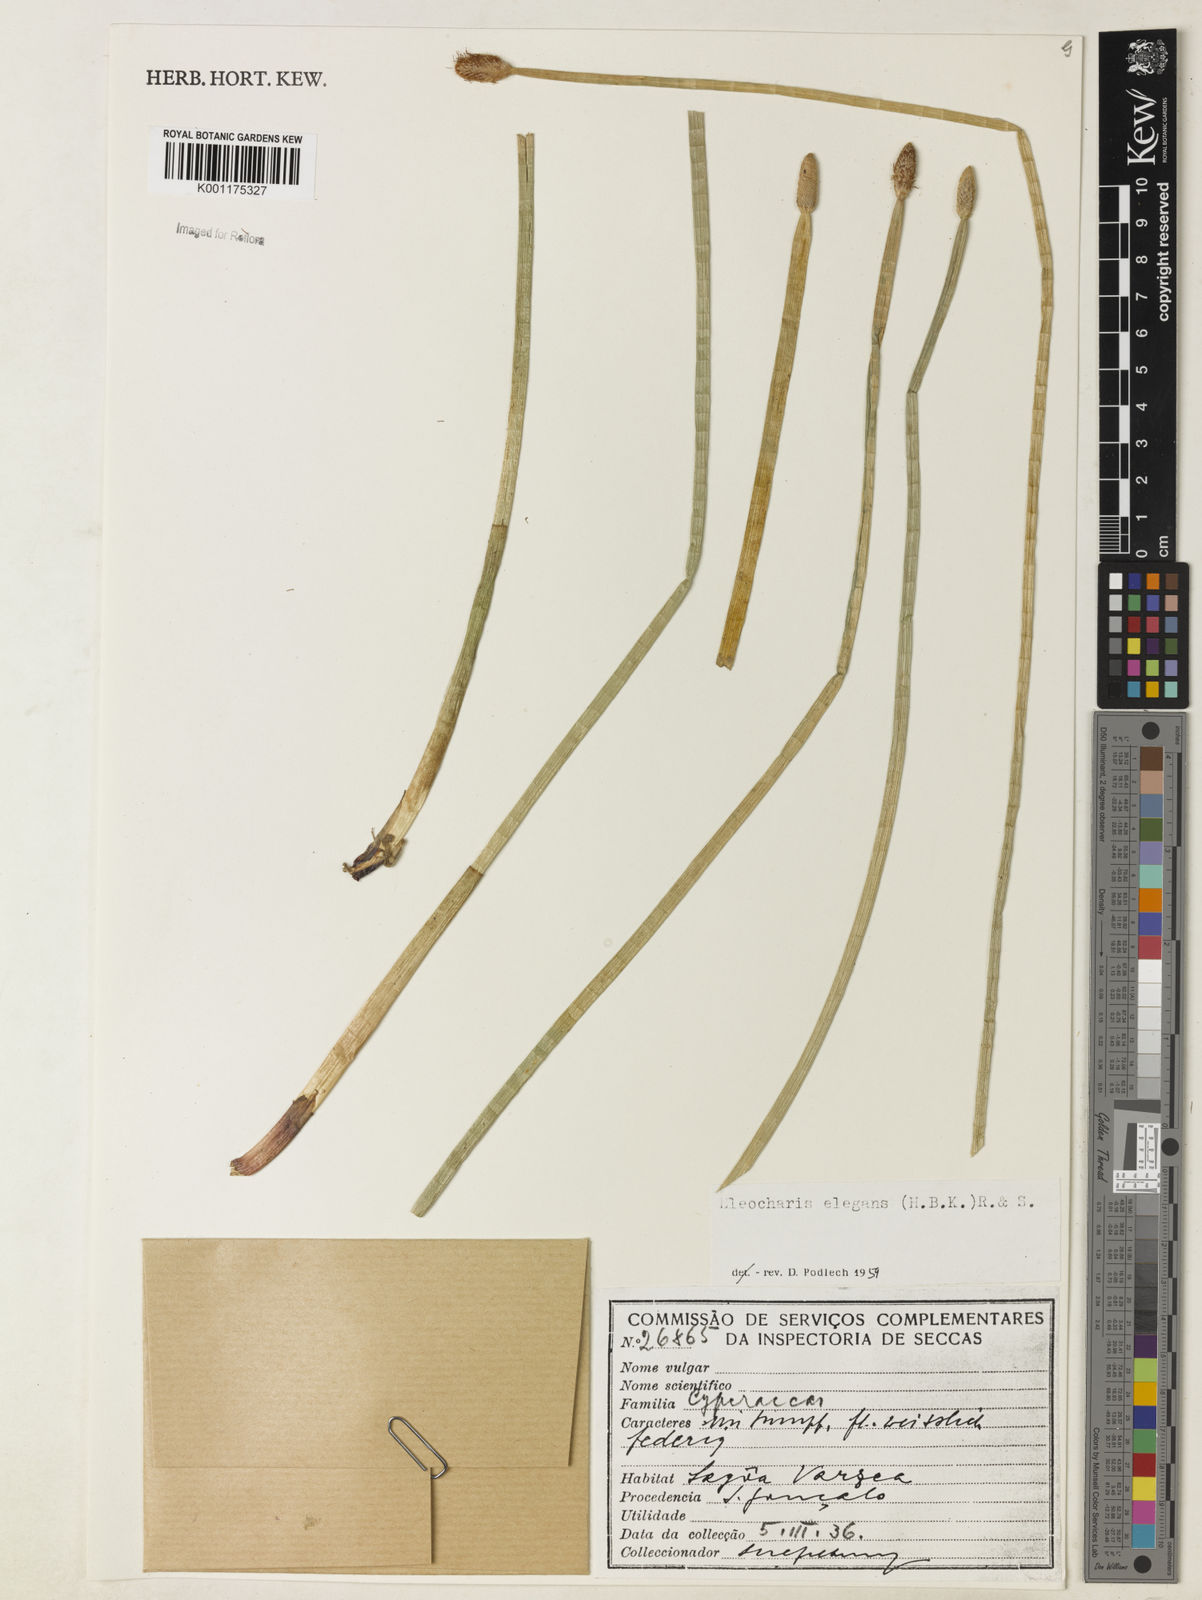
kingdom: Plantae
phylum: Tracheophyta
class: Liliopsida
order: Poales
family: Cyperaceae
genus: Eleocharis
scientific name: Eleocharis elegans
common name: Elegant spike-rush
